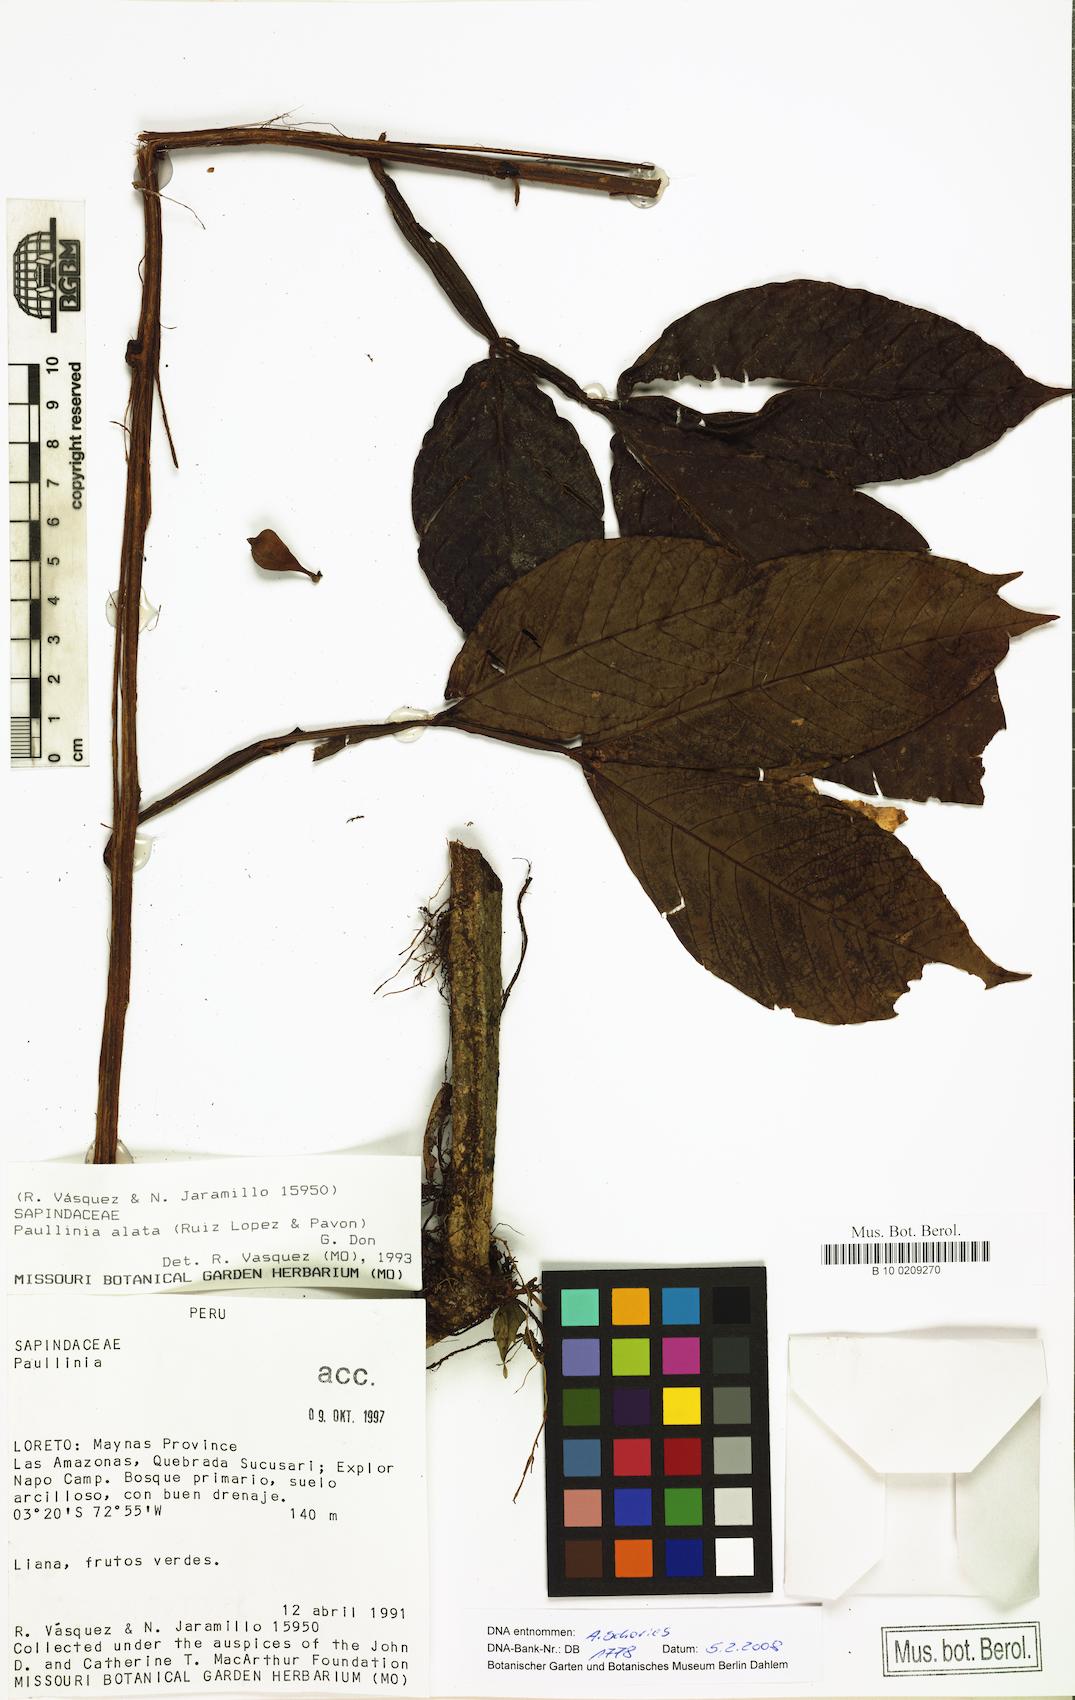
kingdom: Plantae
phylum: Tracheophyta
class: Magnoliopsida
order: Sapindales
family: Sapindaceae
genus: Paullinia
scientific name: Paullinia alata
